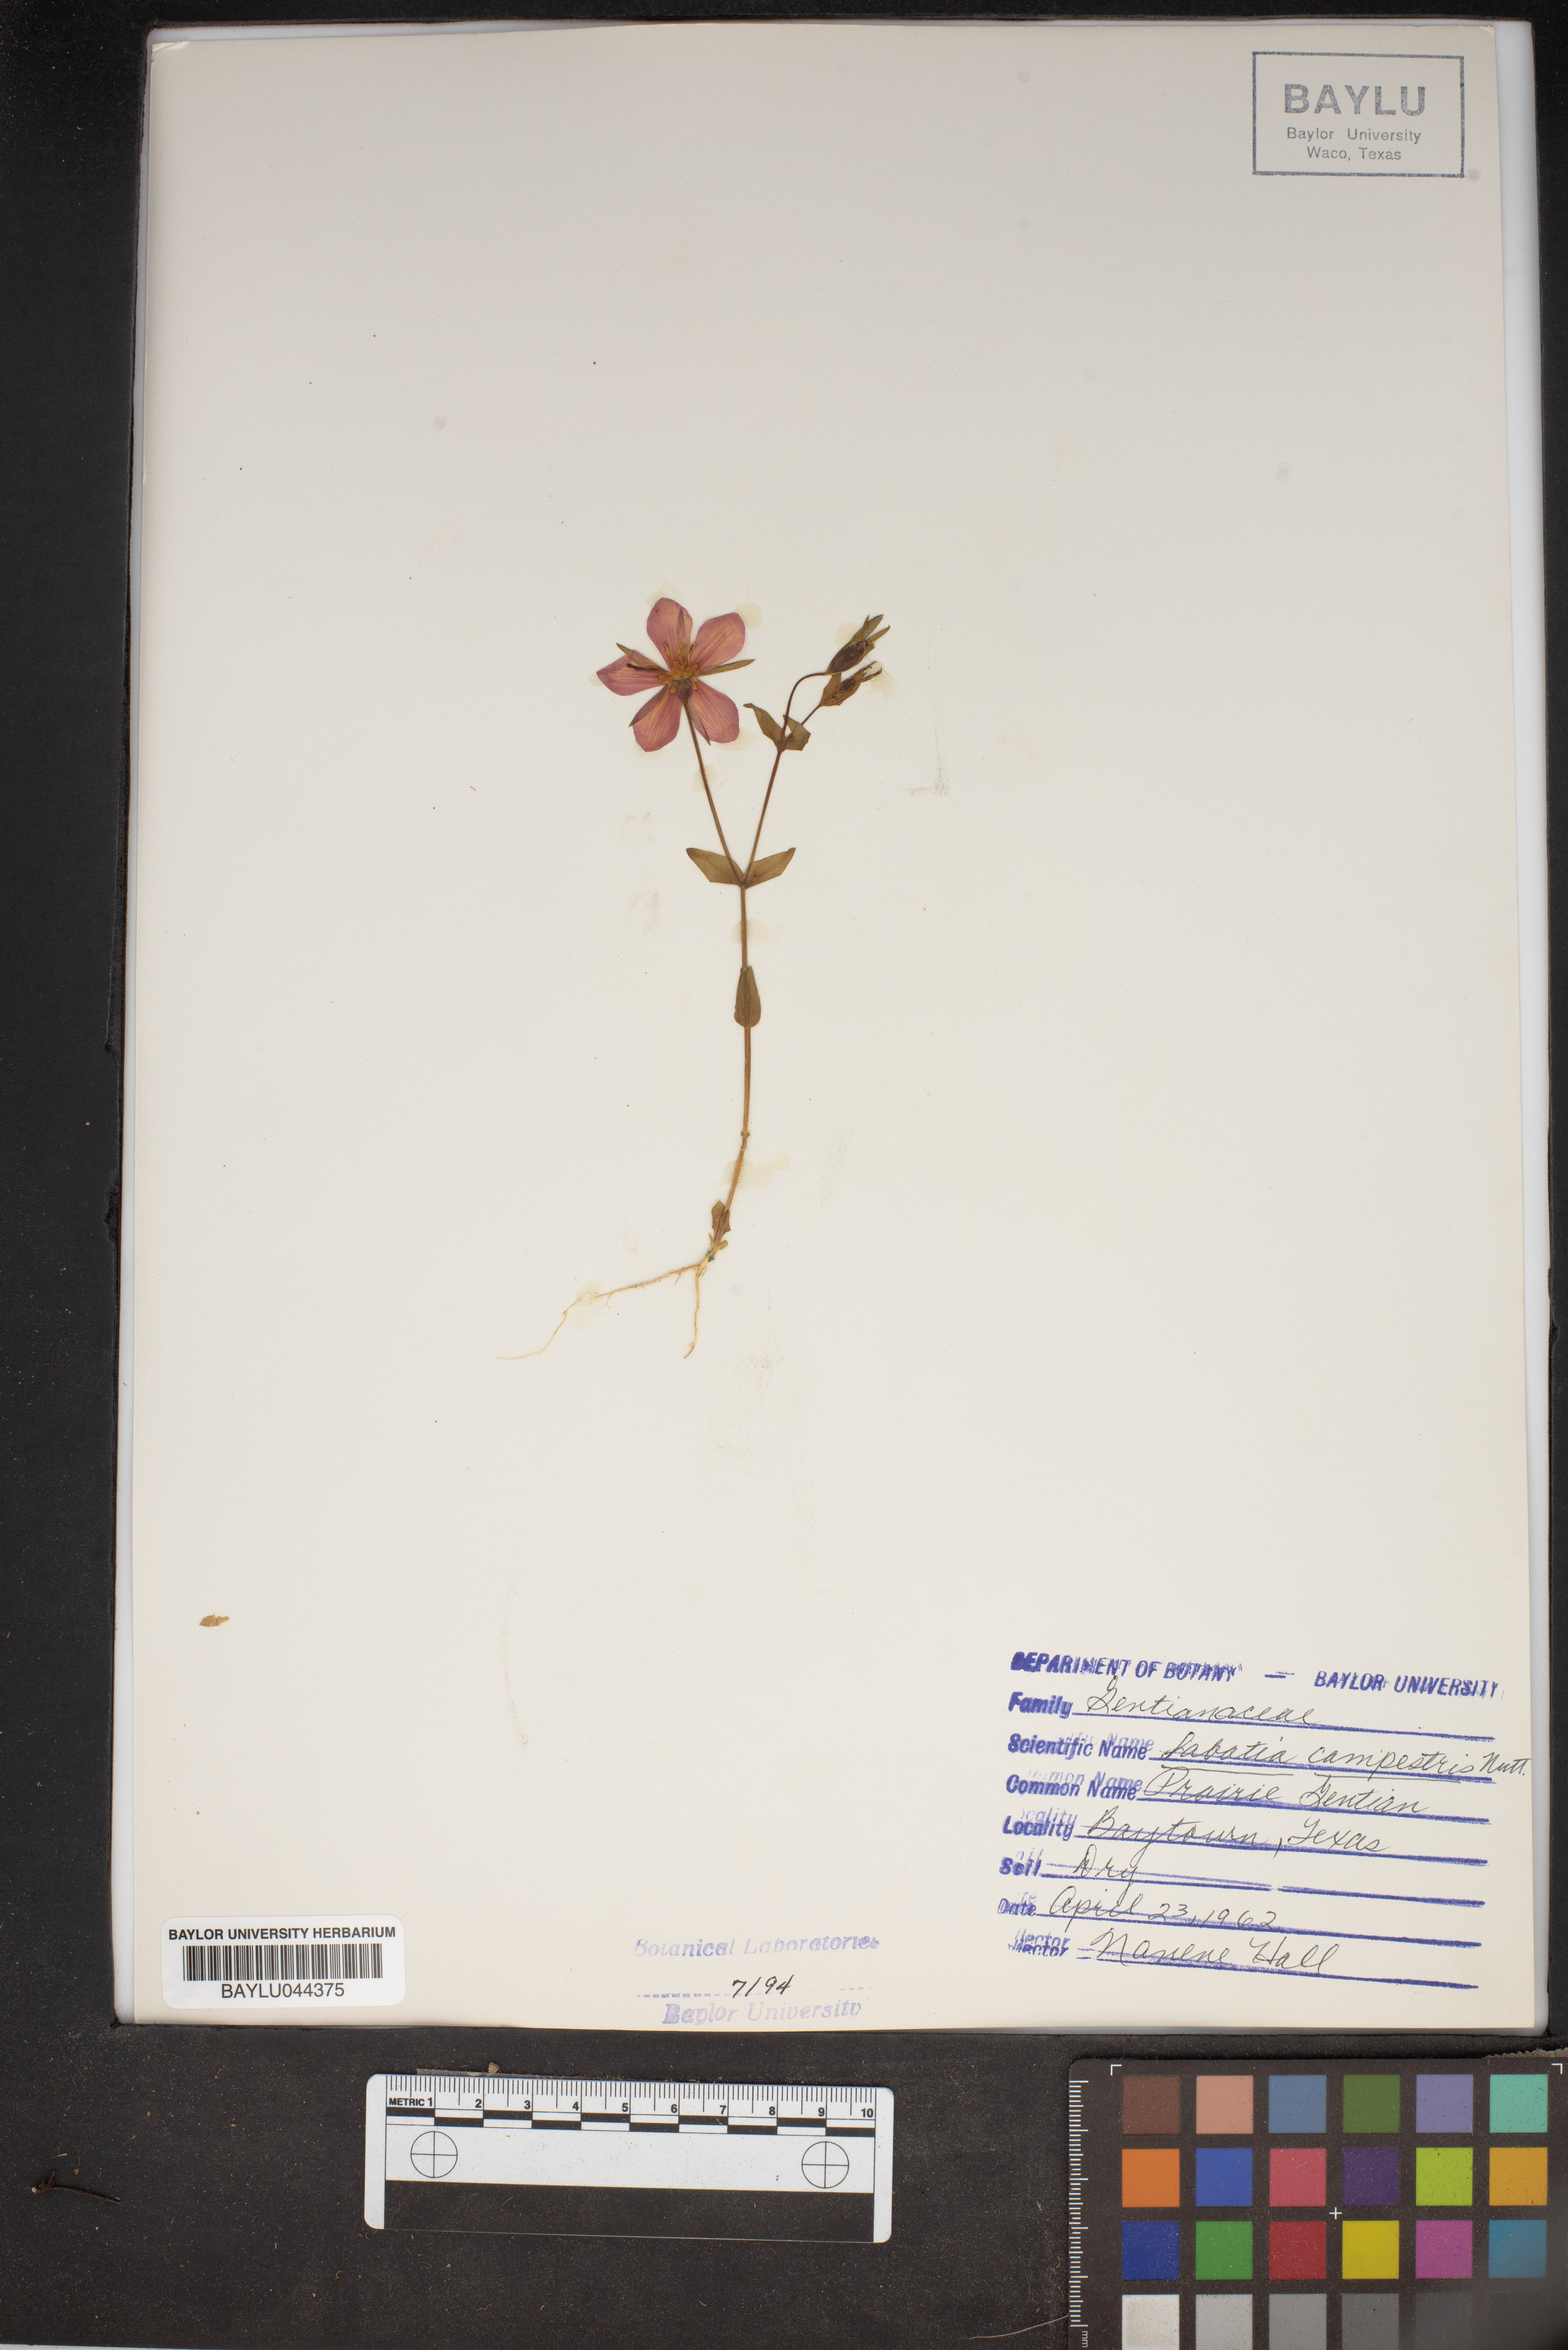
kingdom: Plantae
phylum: Tracheophyta
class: Magnoliopsida
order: Gentianales
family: Gentianaceae
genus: Sabatia
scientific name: Sabatia campestris
